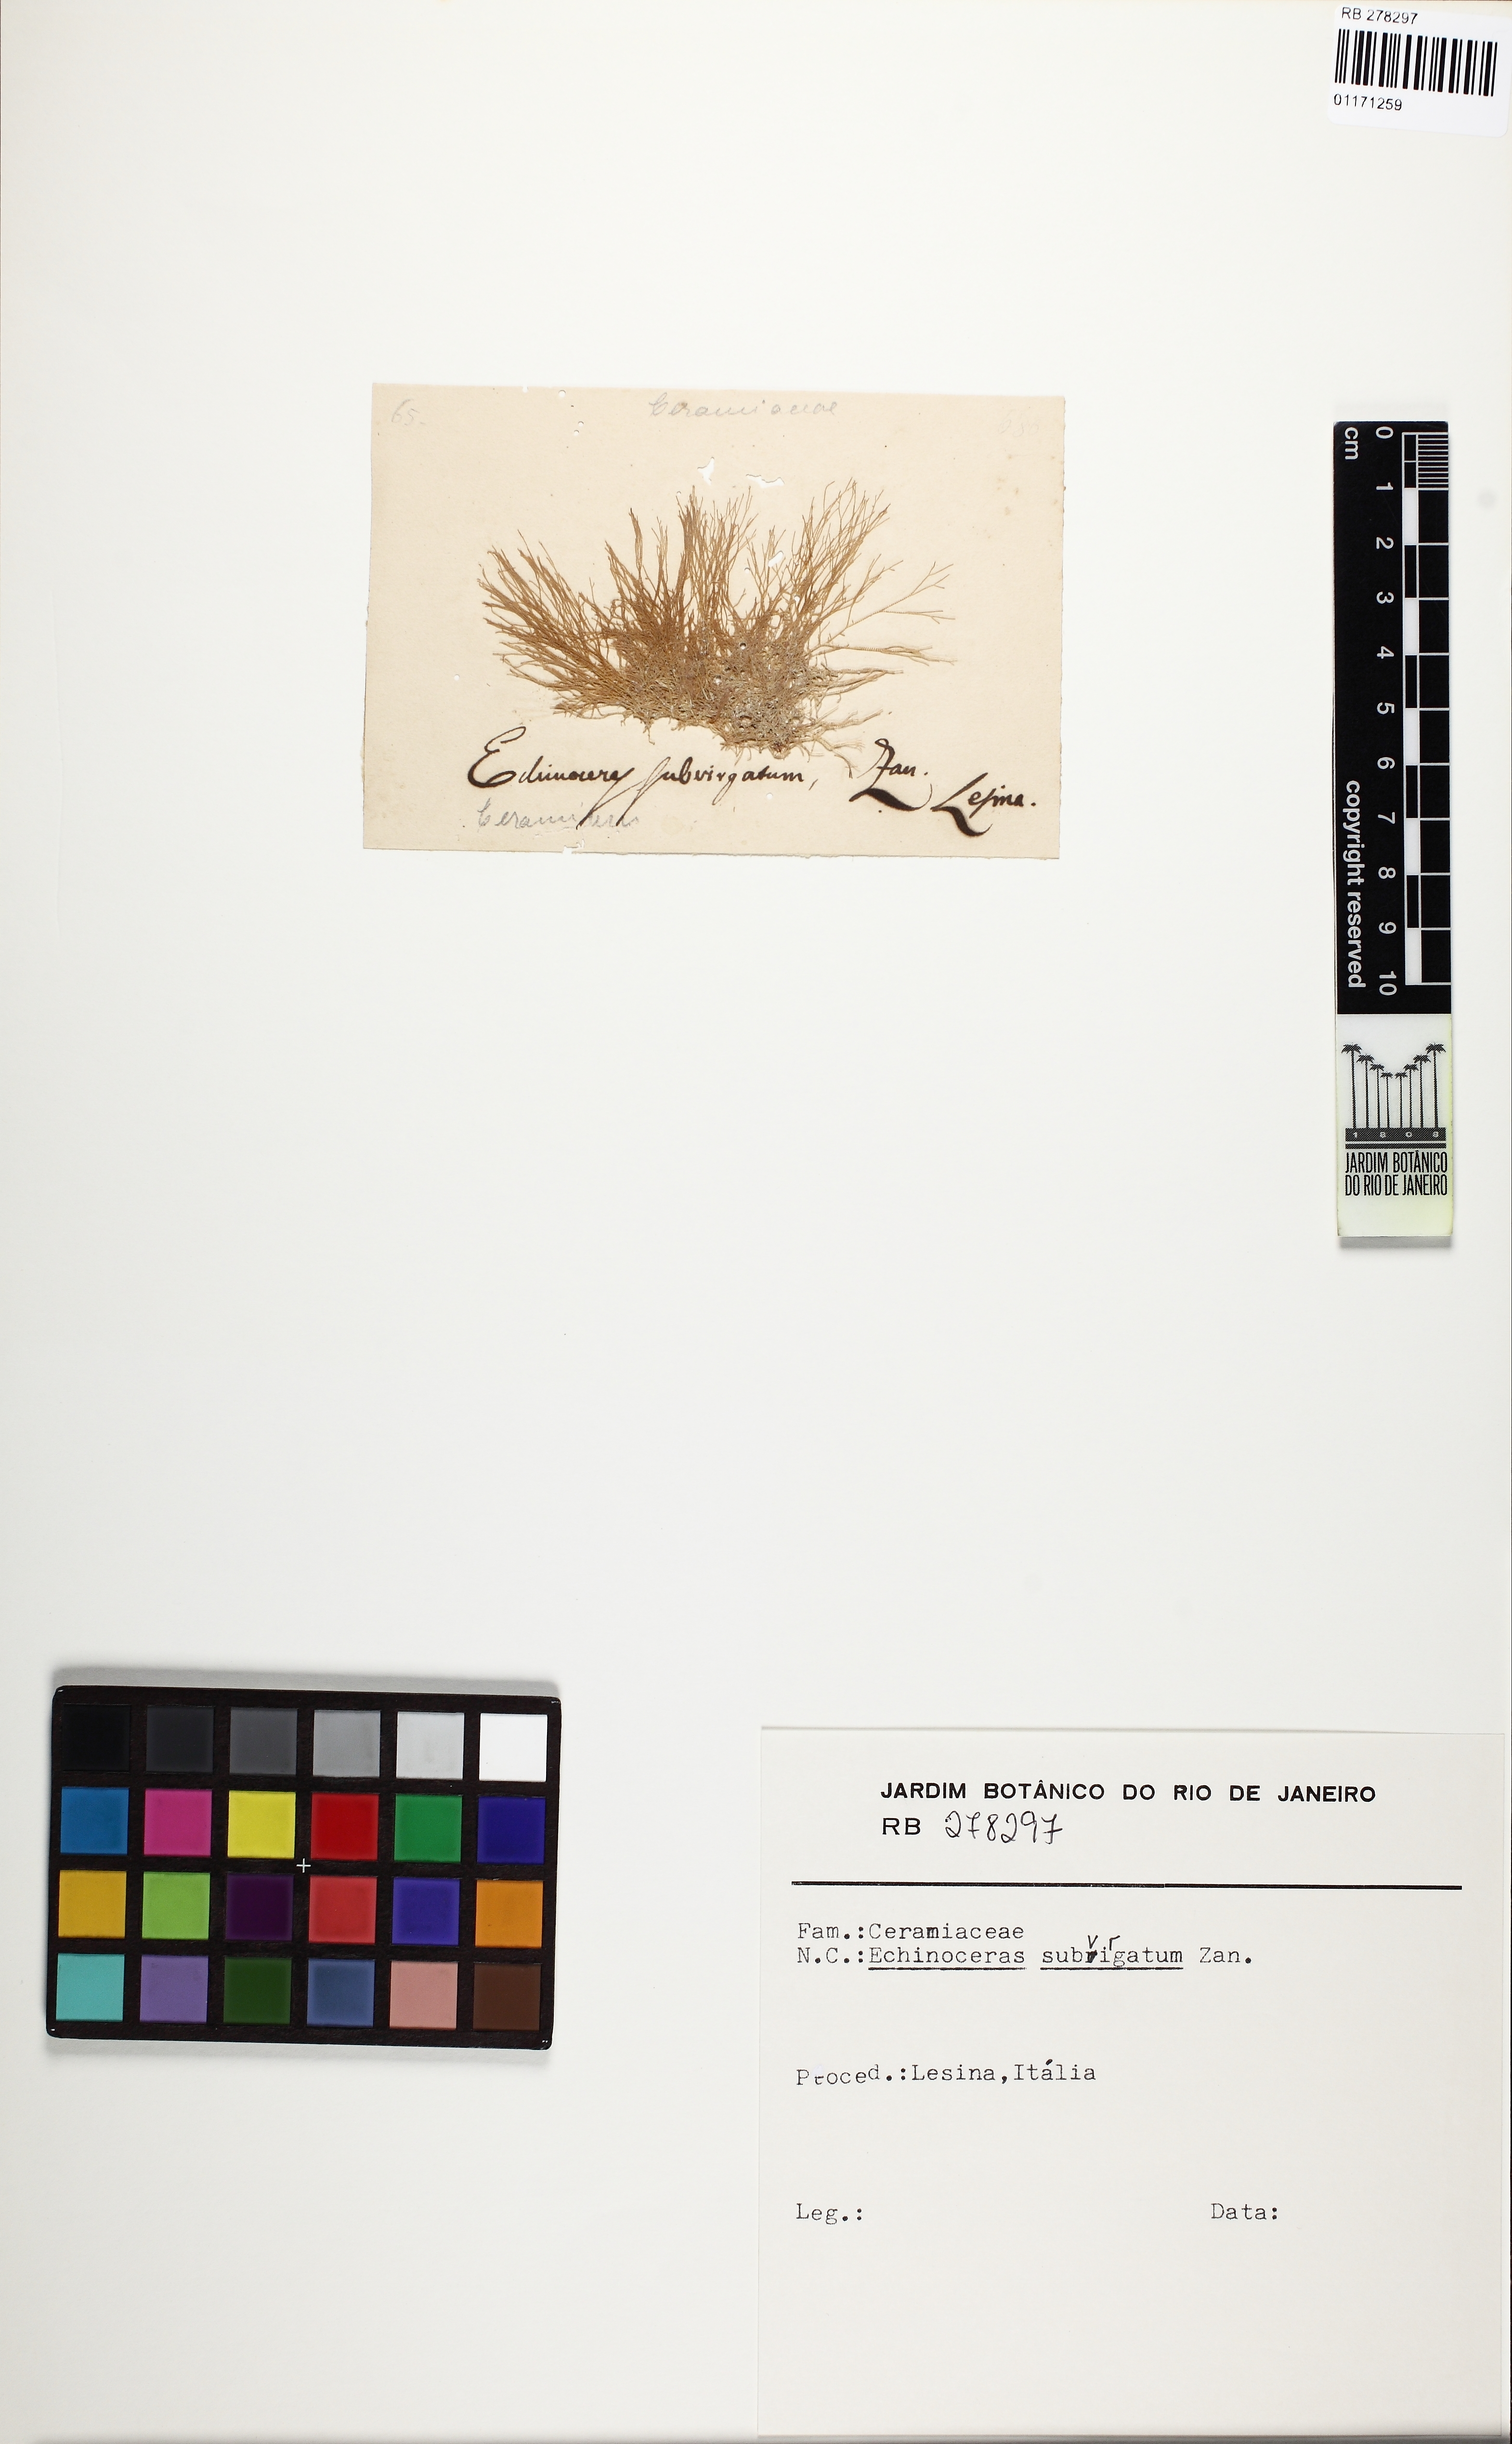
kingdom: Plantae
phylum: Rhodophyta
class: Florideophyceae
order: Ceramiales
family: Ceramiaceae
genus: Ceramium
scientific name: Ceramium
